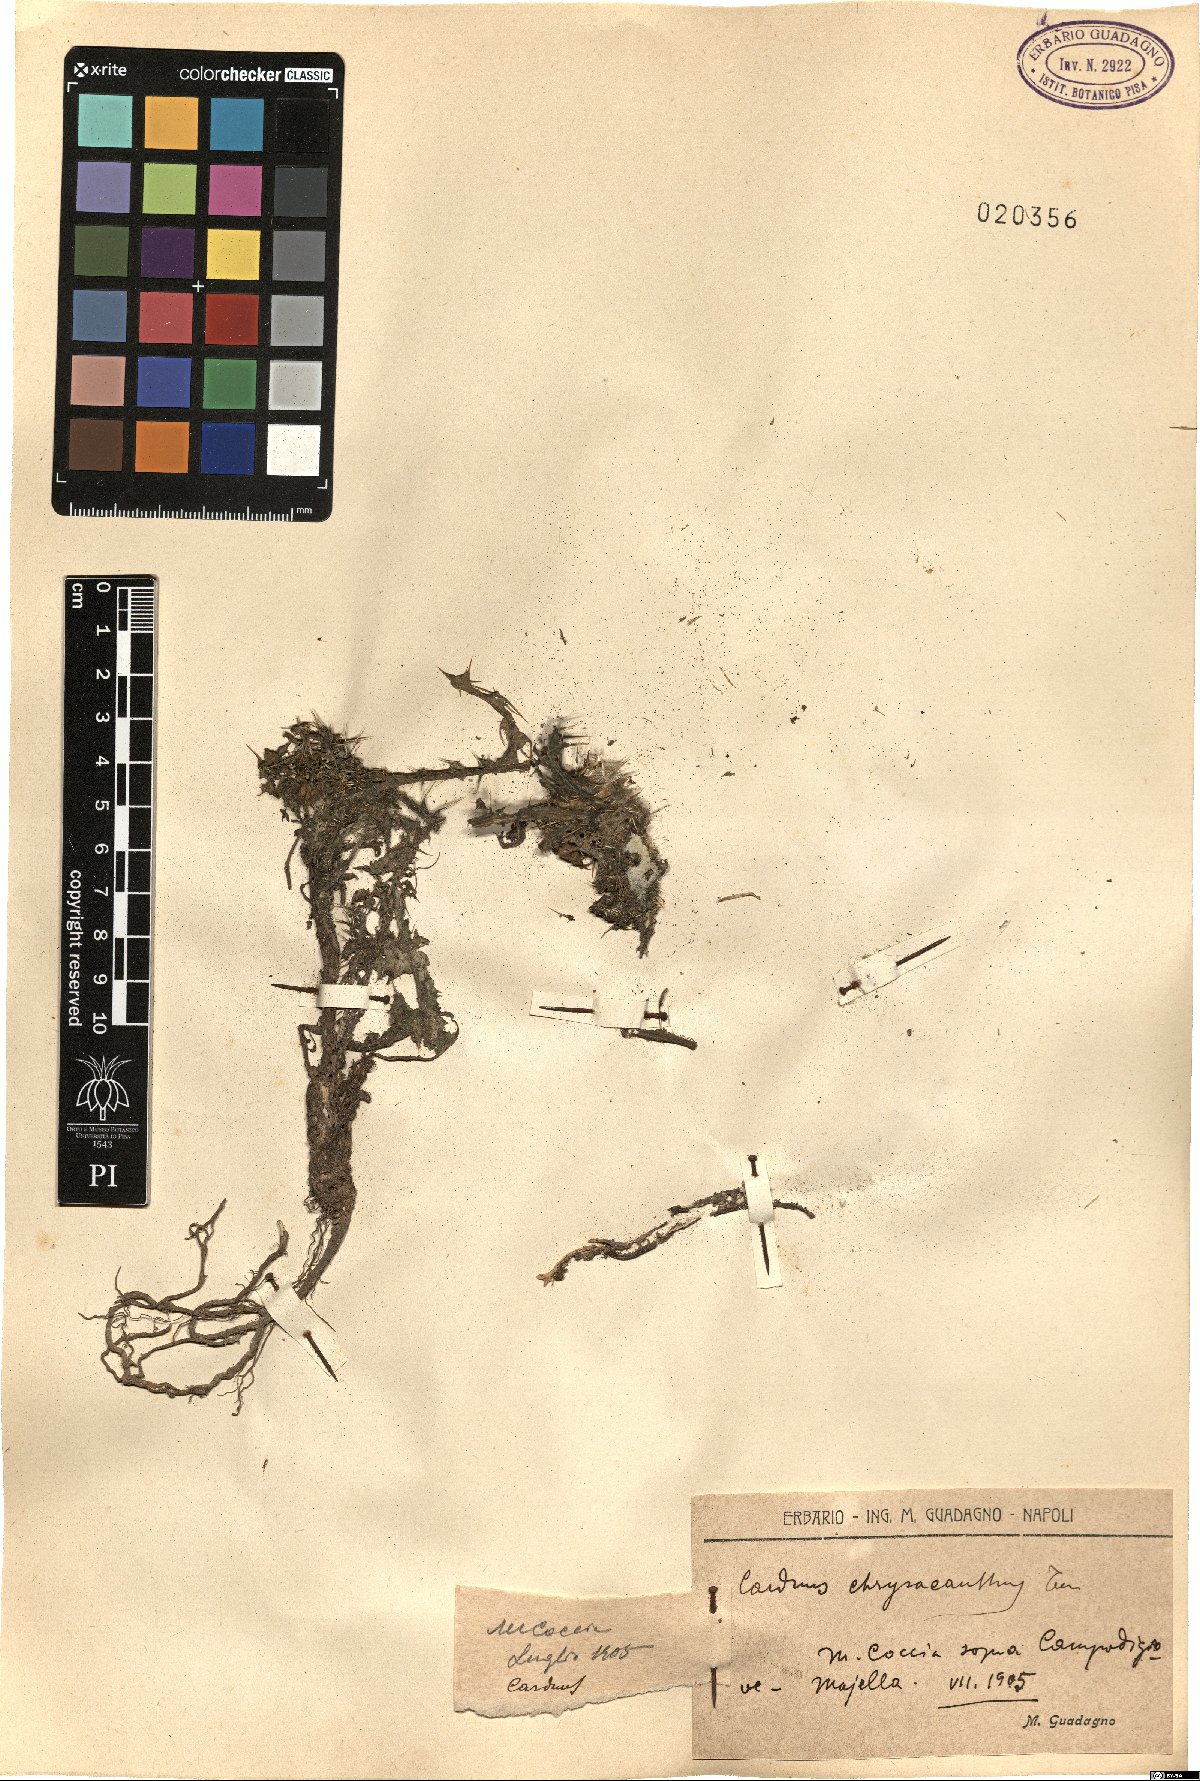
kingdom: Plantae
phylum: Tracheophyta
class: Magnoliopsida
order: Asterales
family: Asteraceae
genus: Carduus
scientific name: Carduus chrysacanthus
